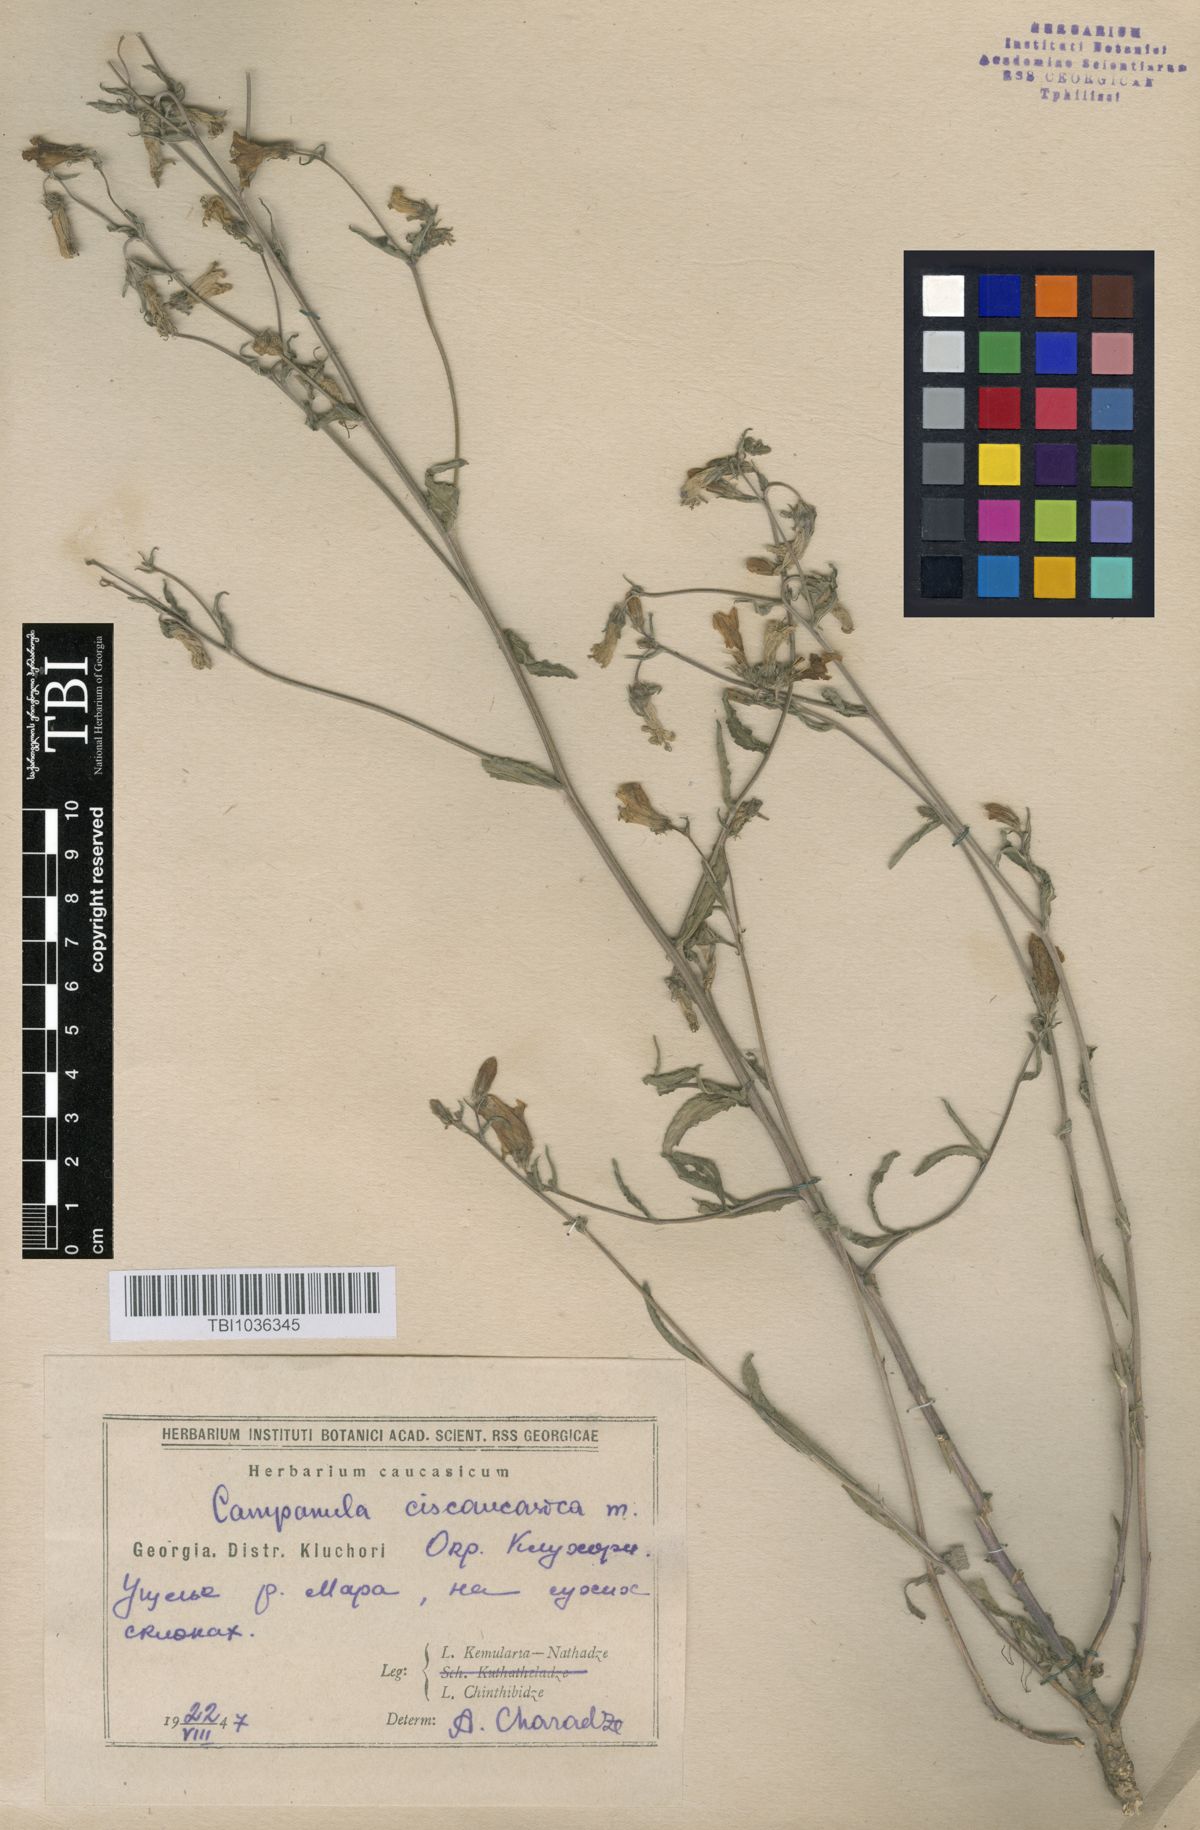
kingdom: Plantae
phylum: Tracheophyta
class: Magnoliopsida
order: Asterales
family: Campanulaceae
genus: Campanula
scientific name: Campanula sibirica
